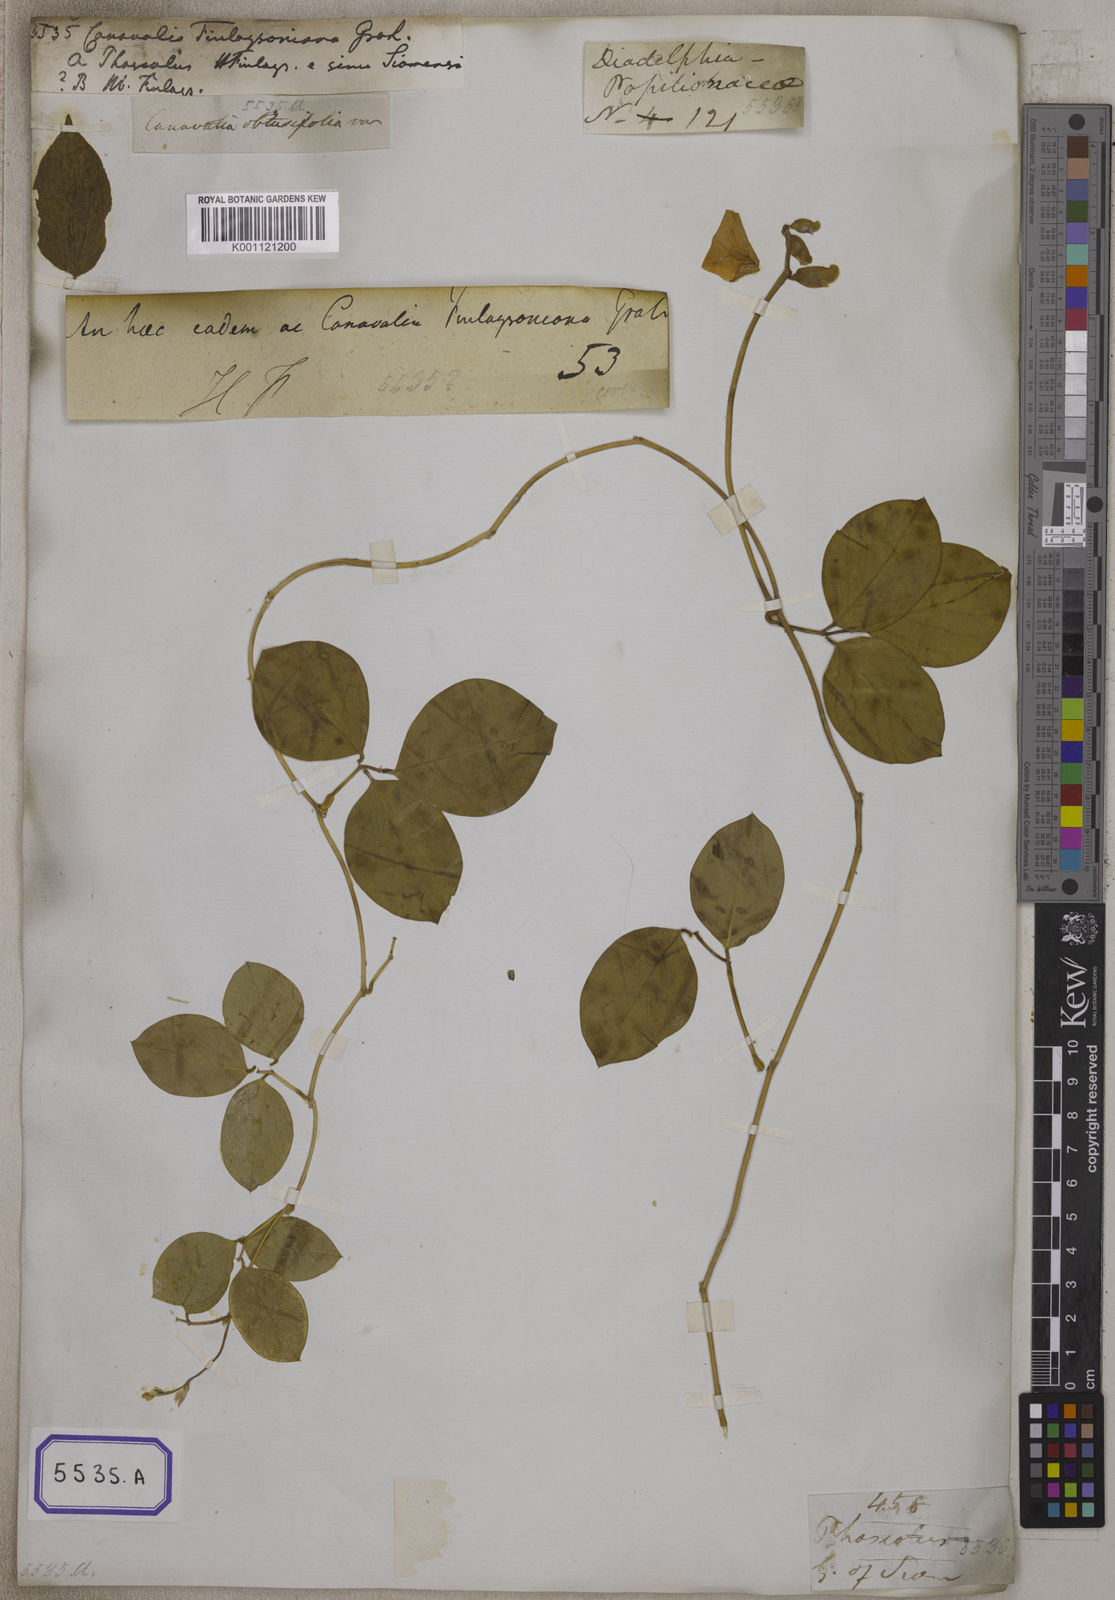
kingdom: Plantae
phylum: Tracheophyta
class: Magnoliopsida
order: Fabales
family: Fabaceae
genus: Canavalia
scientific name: Canavalia
